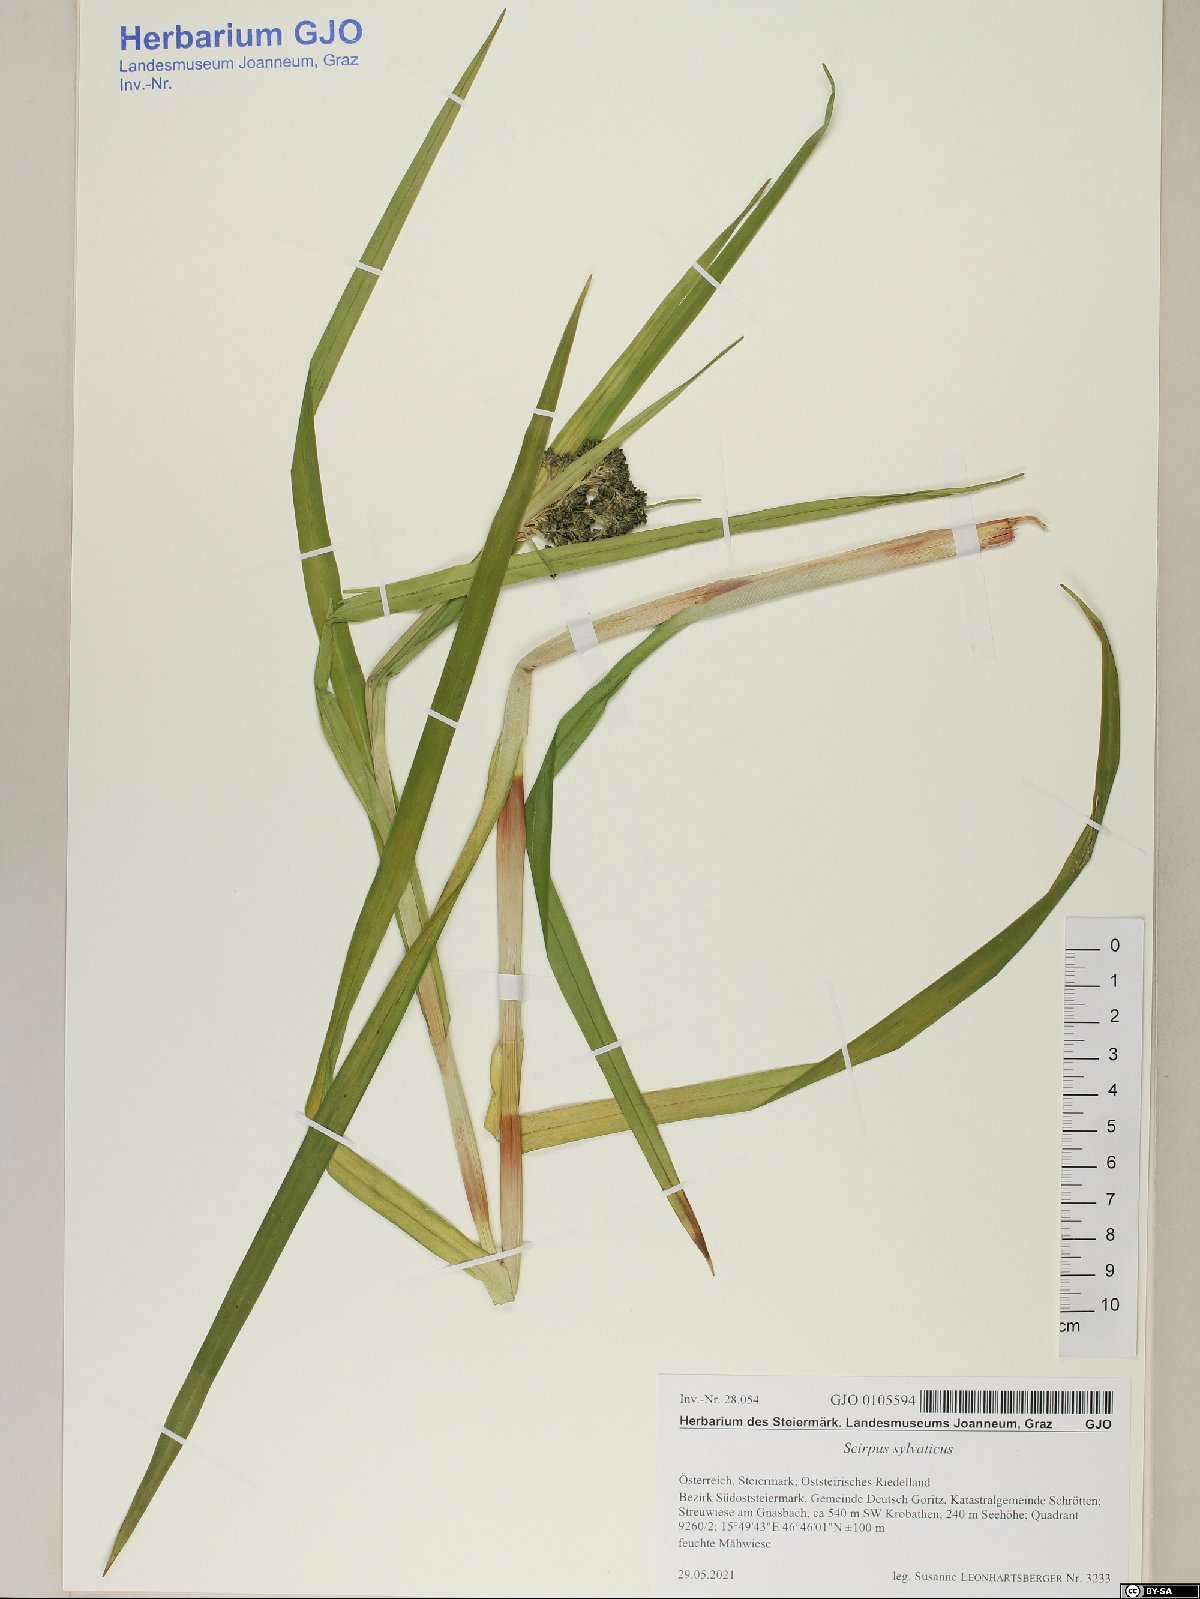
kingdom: Plantae
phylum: Tracheophyta
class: Liliopsida
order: Poales
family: Cyperaceae
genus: Scirpus
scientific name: Scirpus sylvaticus
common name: Wood club-rush
